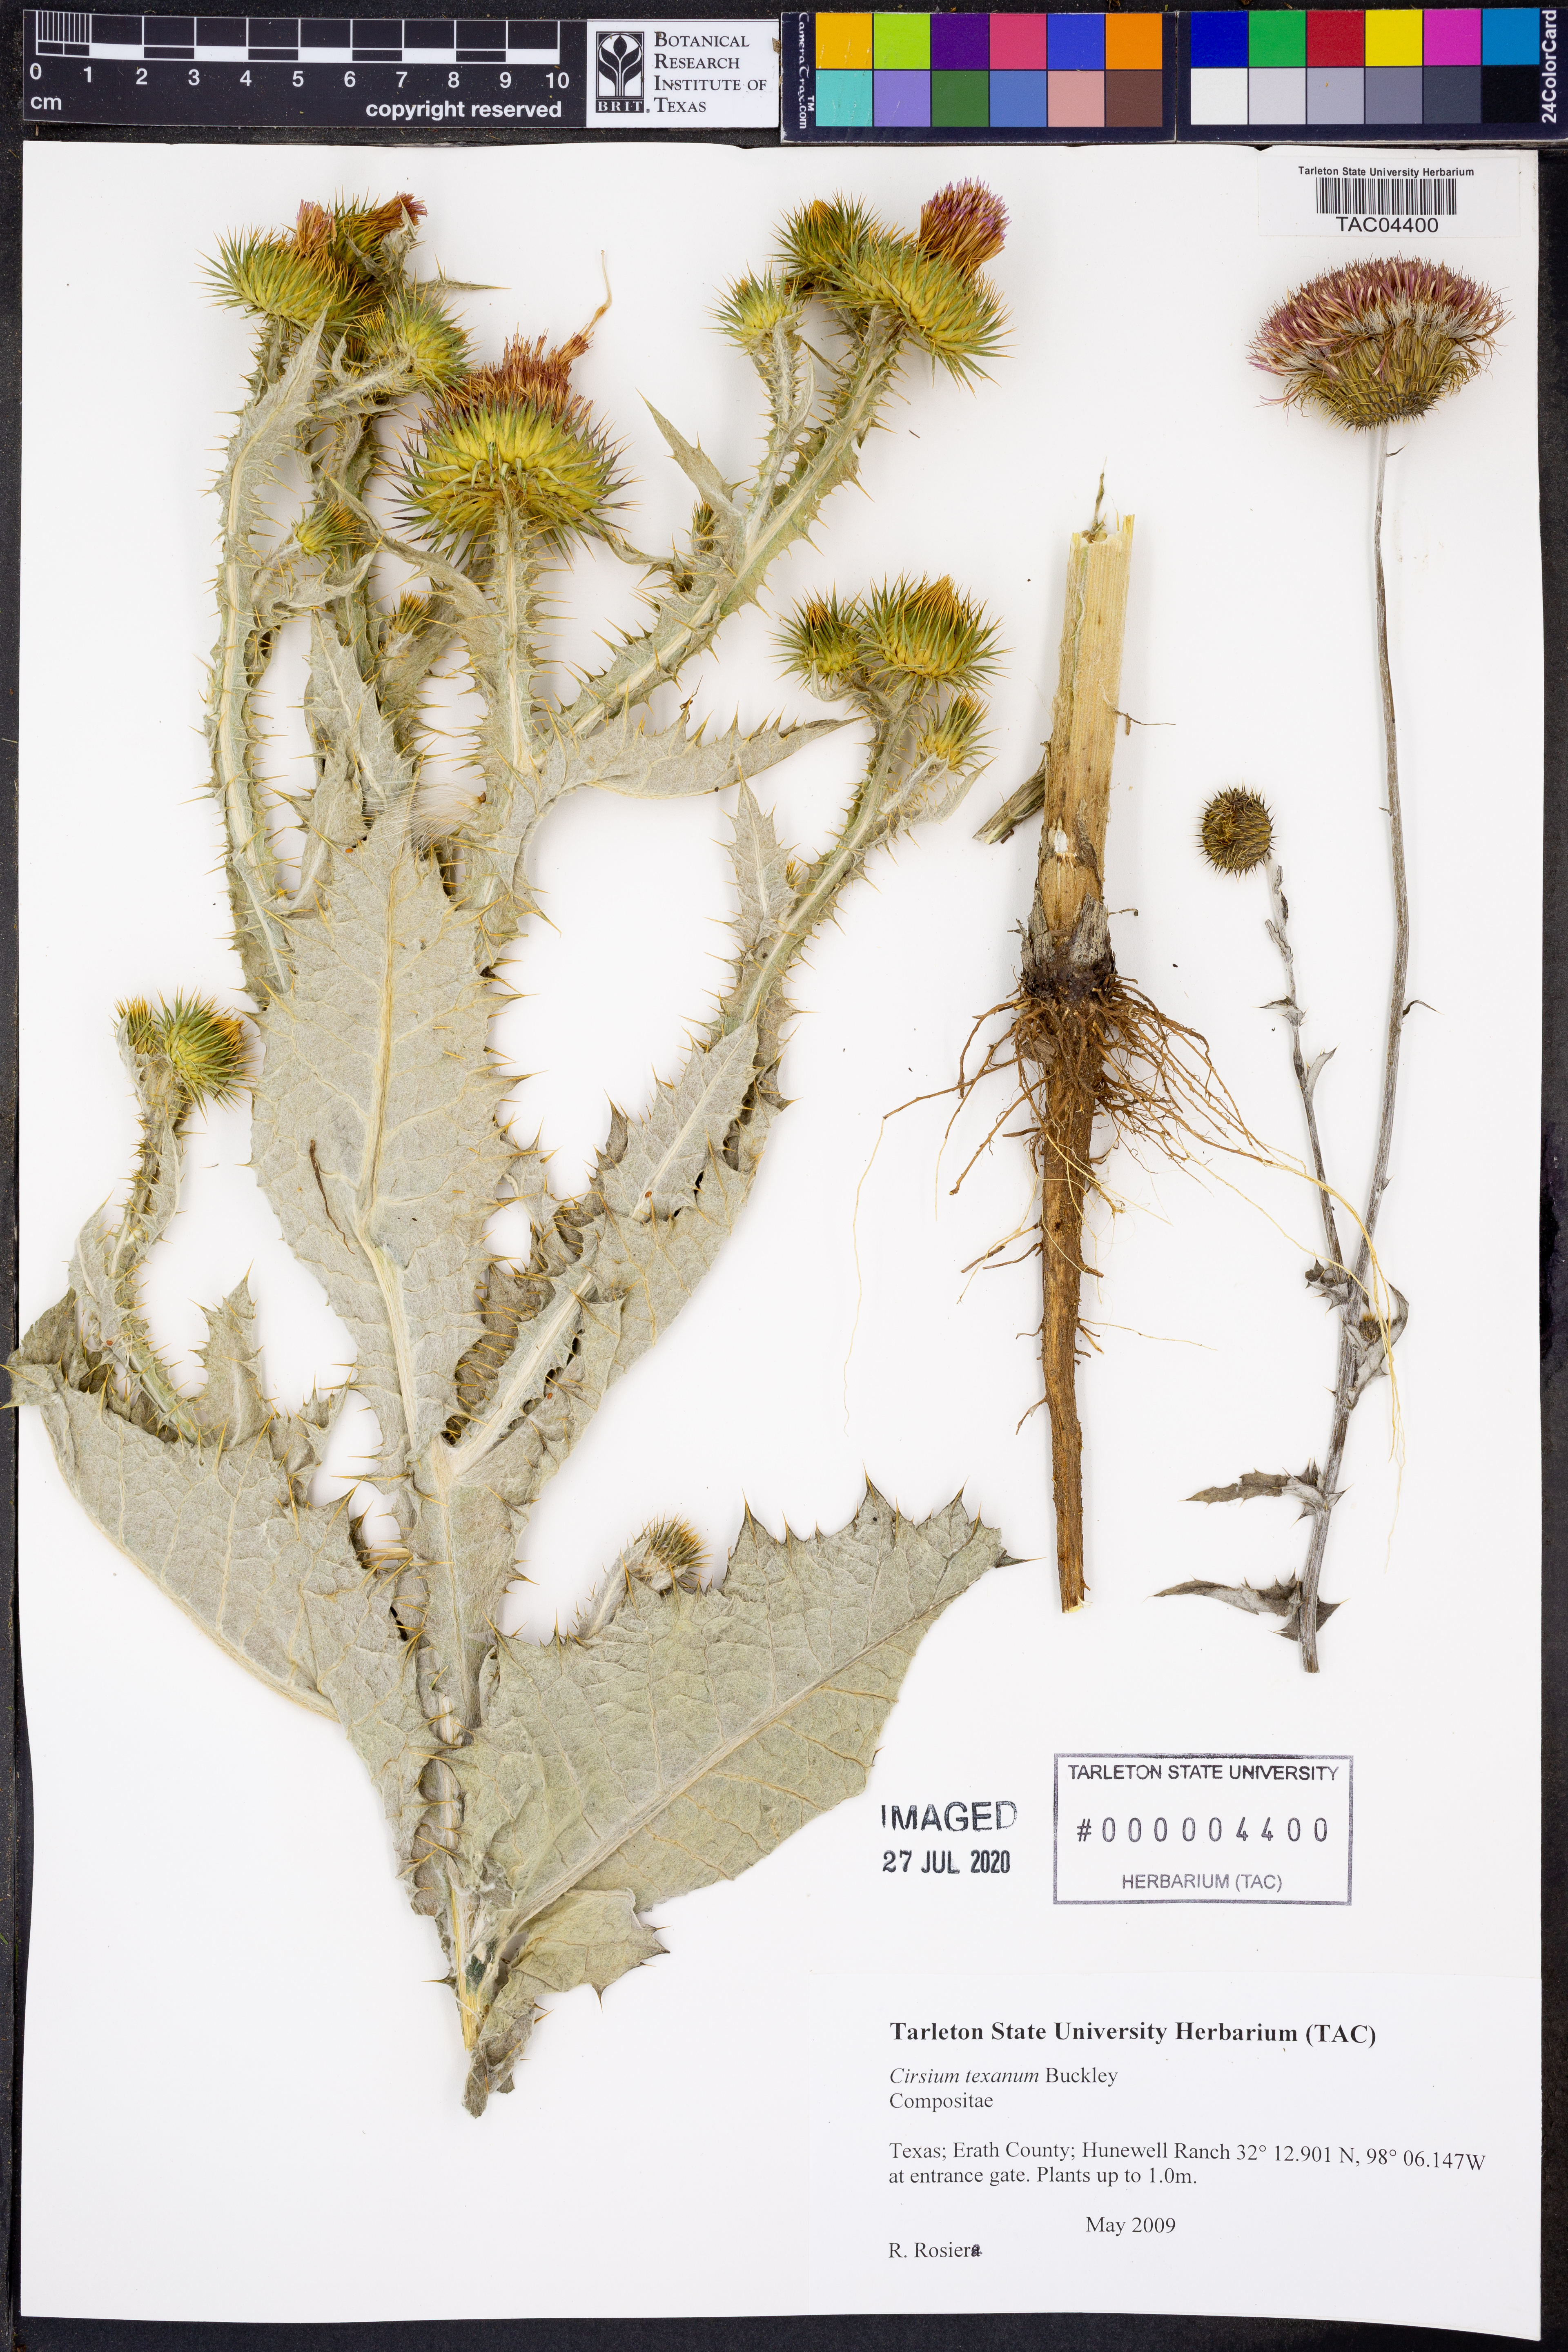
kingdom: Plantae
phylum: Tracheophyta
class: Magnoliopsida
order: Asterales
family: Asteraceae
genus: Cirsium
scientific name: Cirsium texanum
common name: Texas purple thistle
